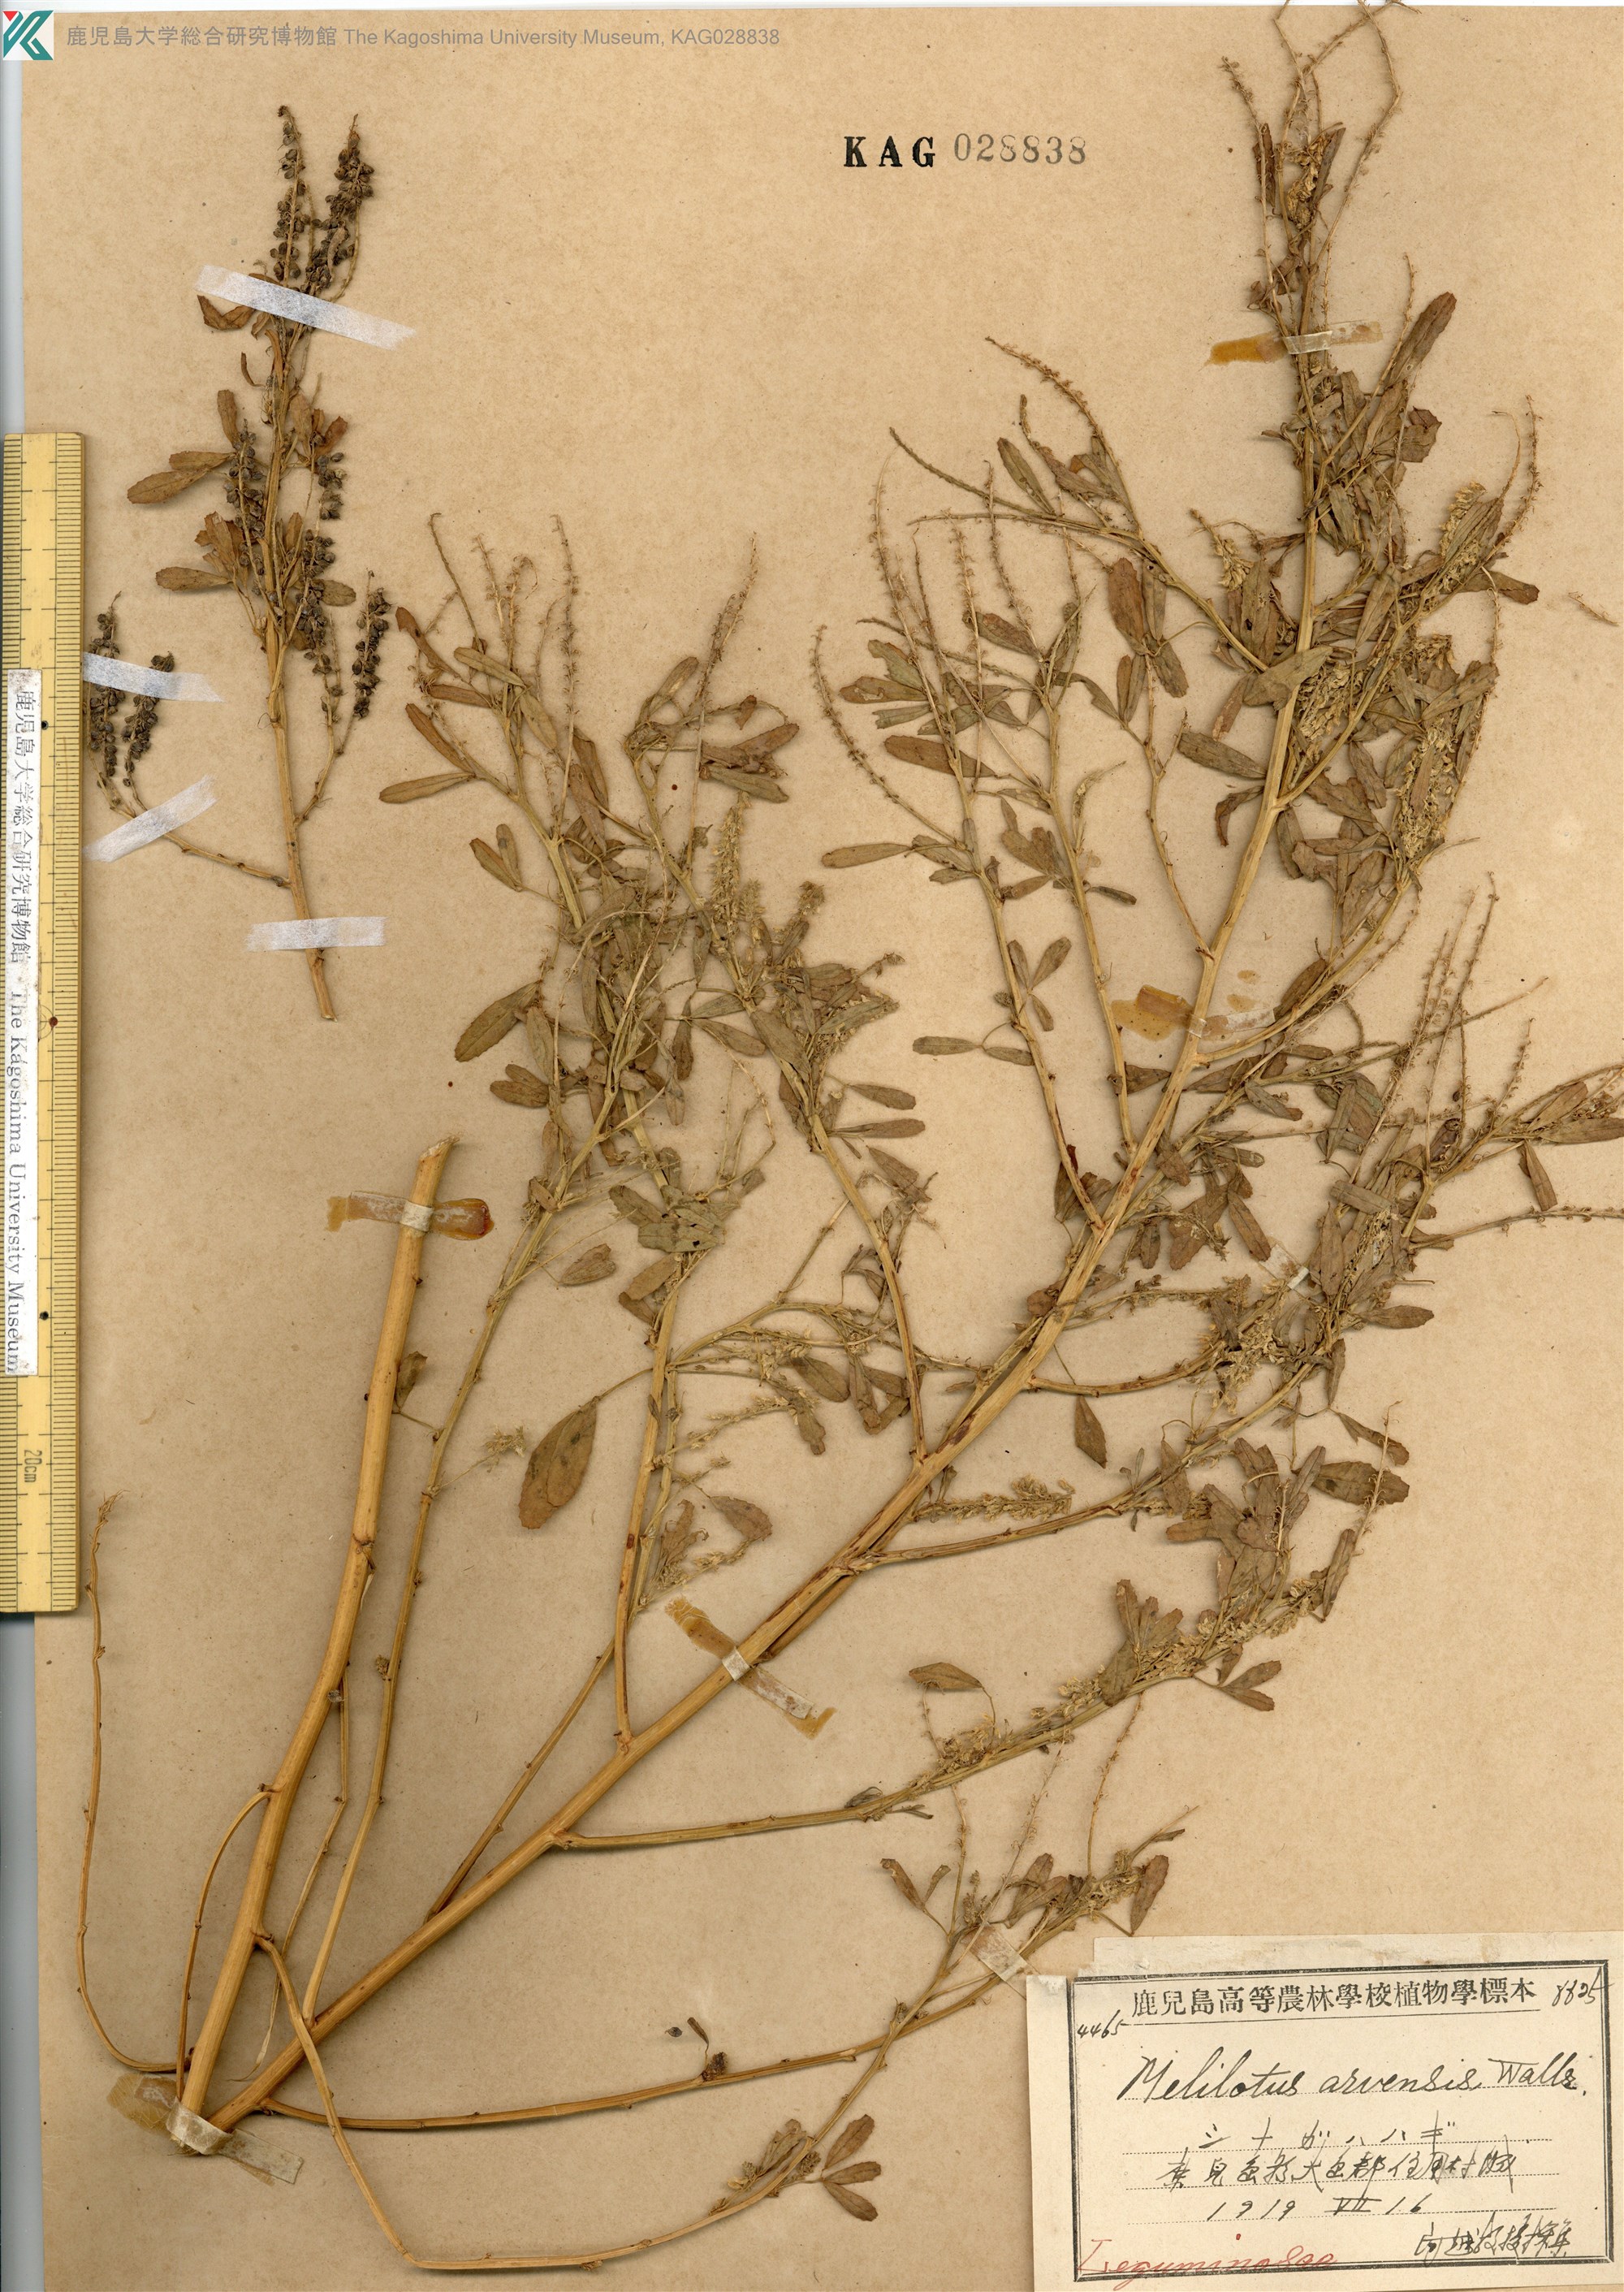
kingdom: Plantae
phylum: Tracheophyta
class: Magnoliopsida
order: Fabales
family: Fabaceae
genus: Melilotus
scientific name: Melilotus suaveolens
